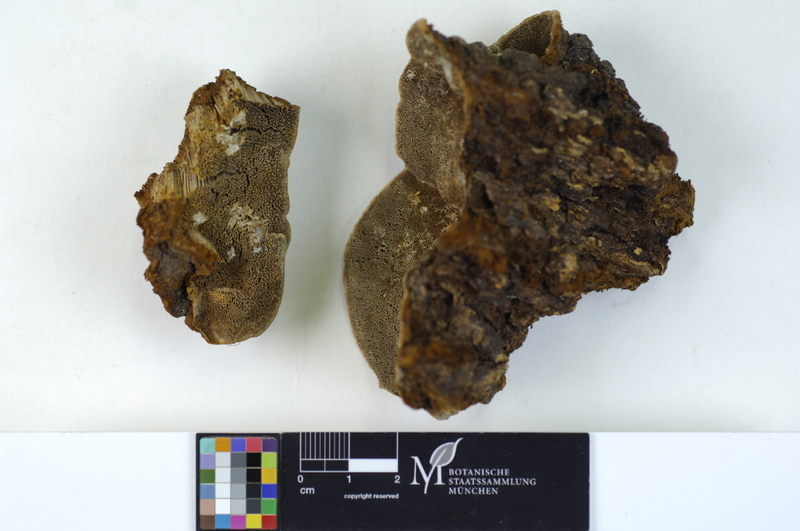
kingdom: Plantae
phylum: Tracheophyta
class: Pinopsida
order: Pinales
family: Pinaceae
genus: Picea
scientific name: Picea
